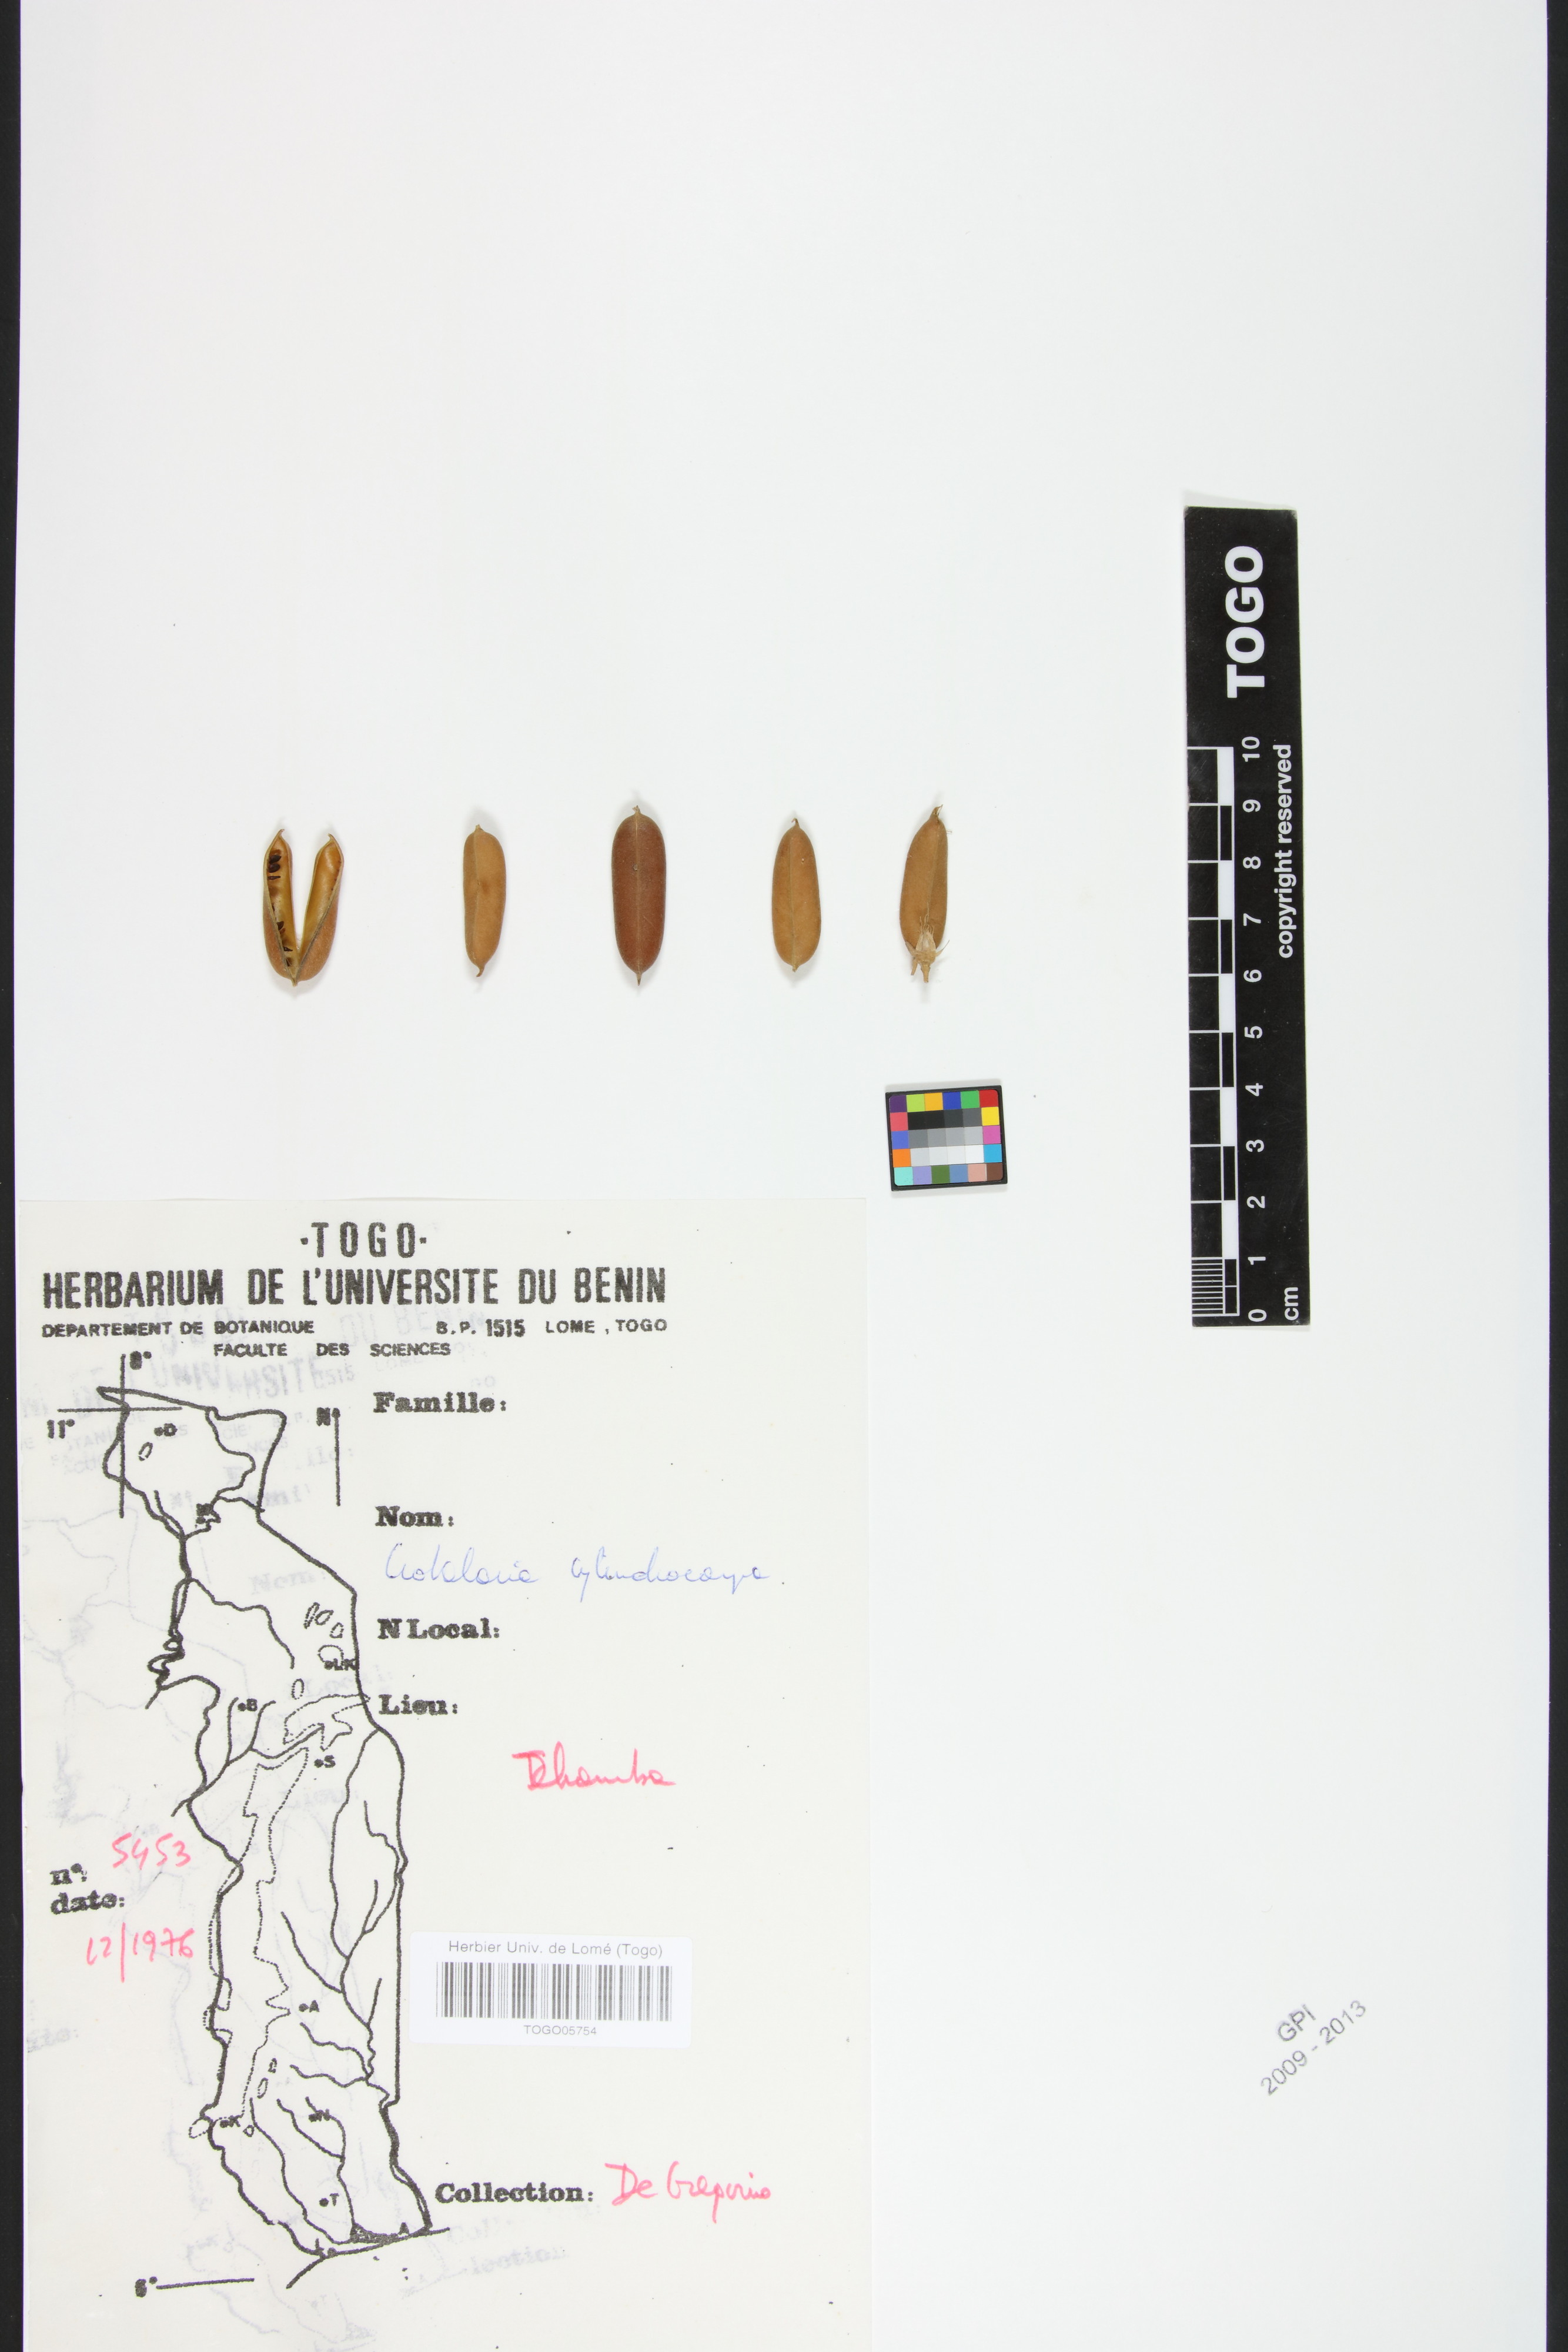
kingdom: Plantae
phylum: Tracheophyta
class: Magnoliopsida
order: Fabales
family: Fabaceae
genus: Crotalaria
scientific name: Crotalaria cylindrocarpa
